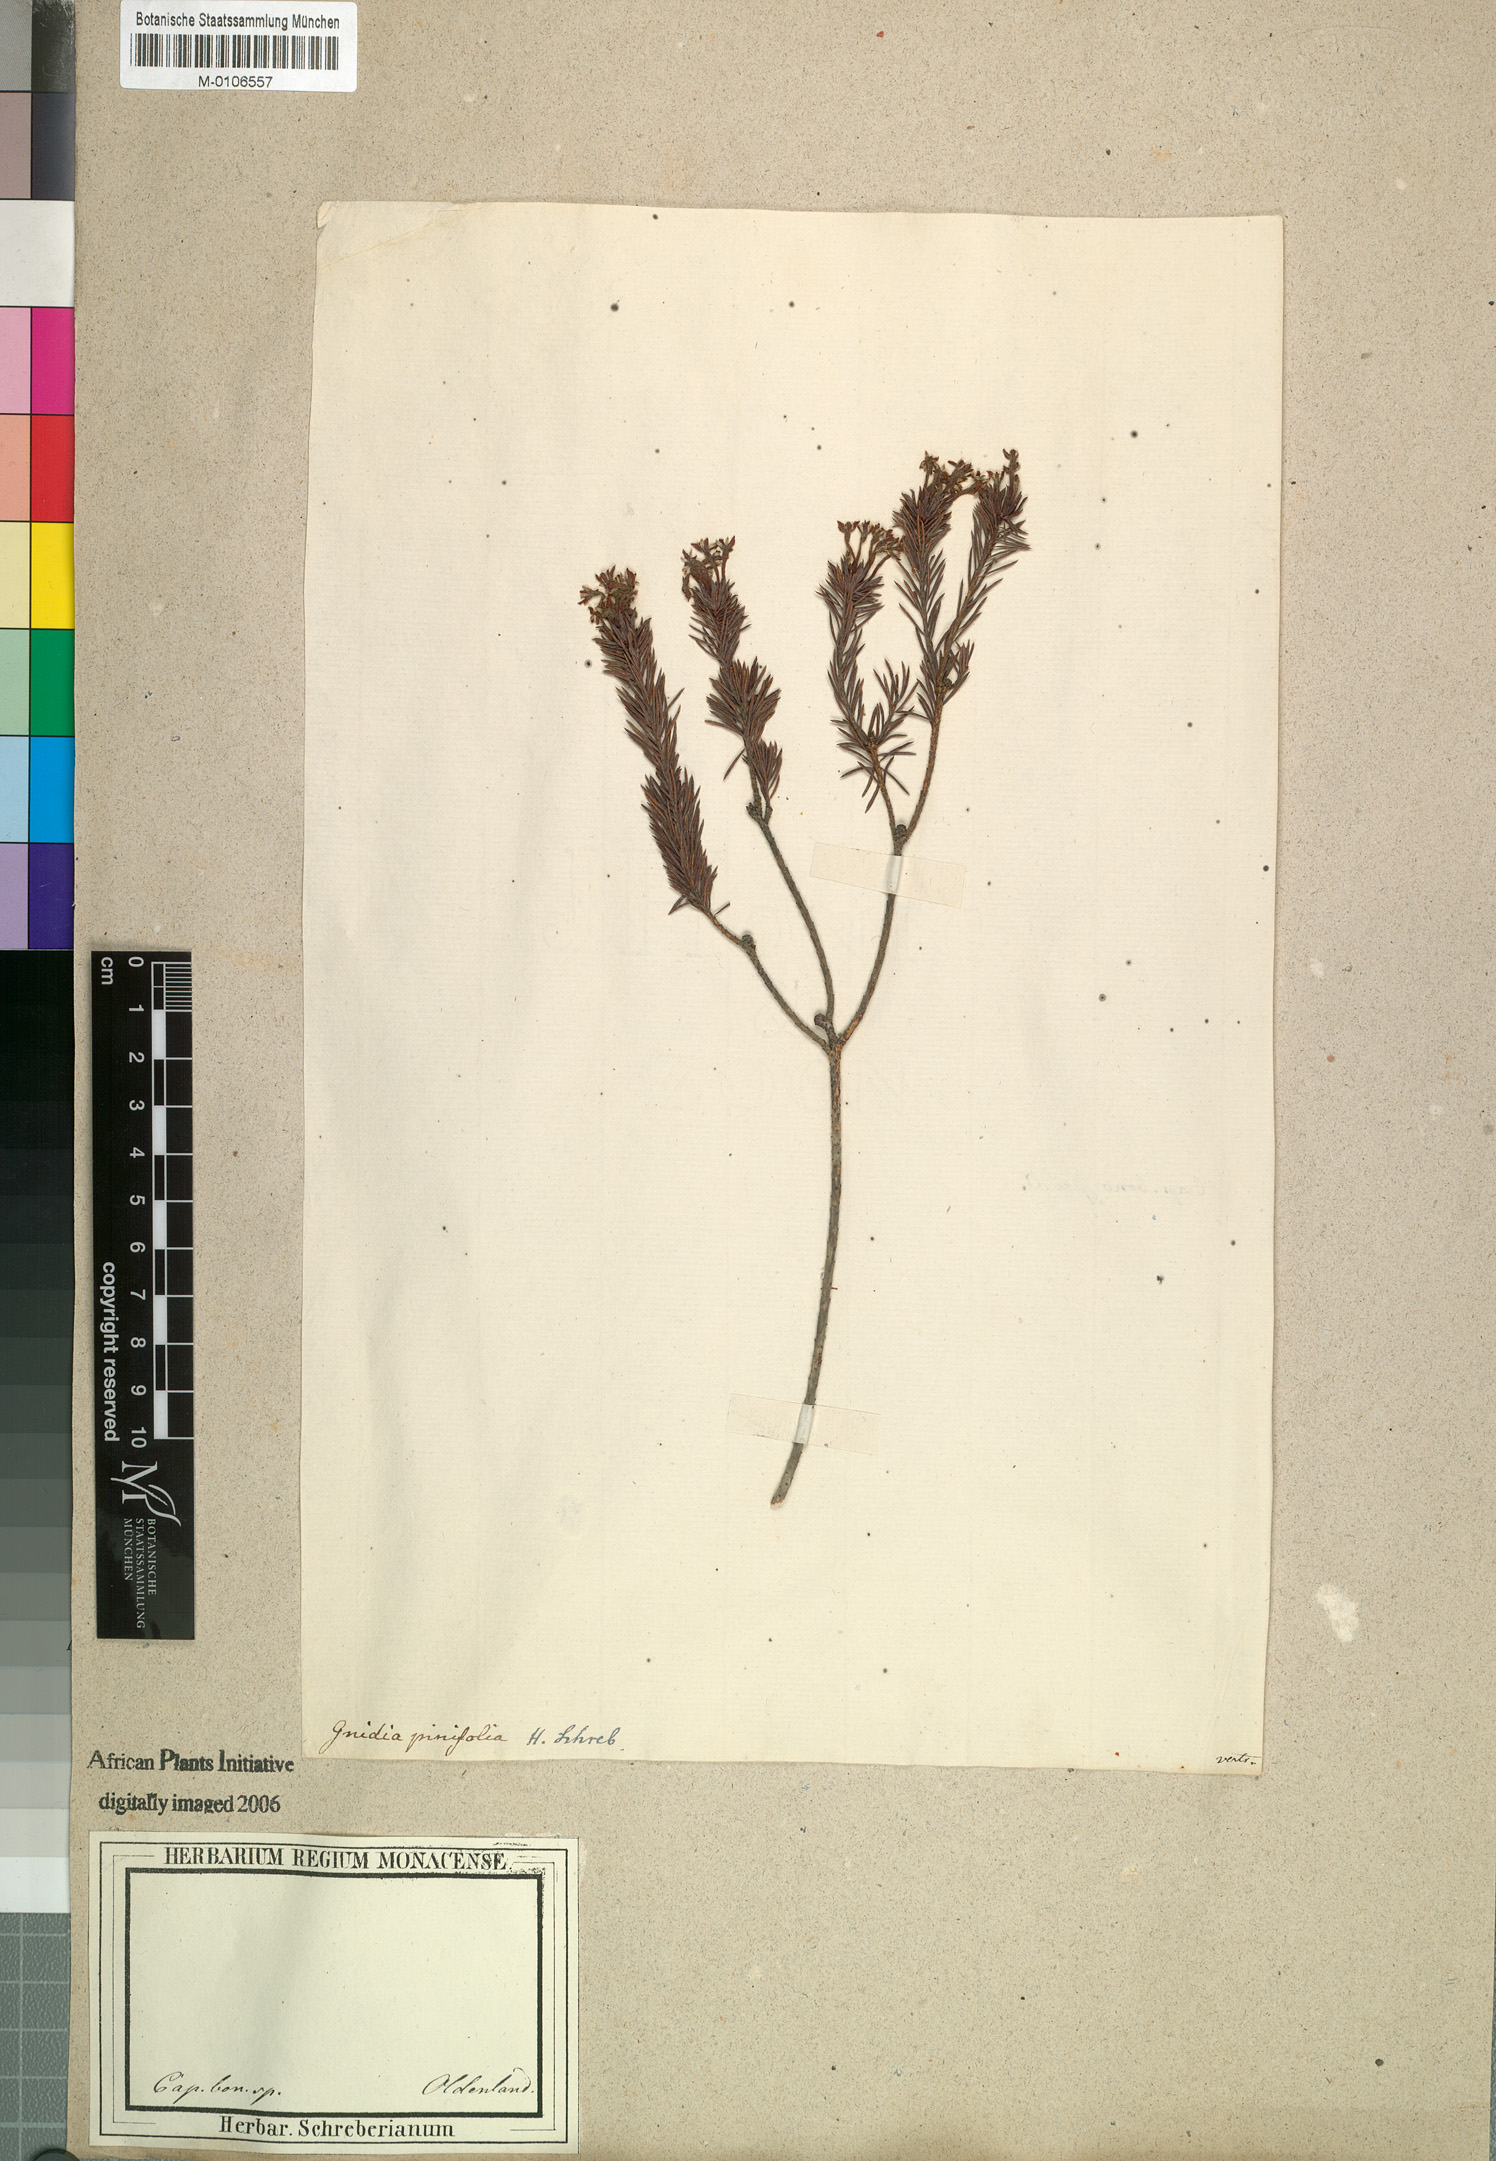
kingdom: Plantae
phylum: Tracheophyta
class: Magnoliopsida
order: Malvales
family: Thymelaeaceae
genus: Gnidia
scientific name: Gnidia pinifolia
